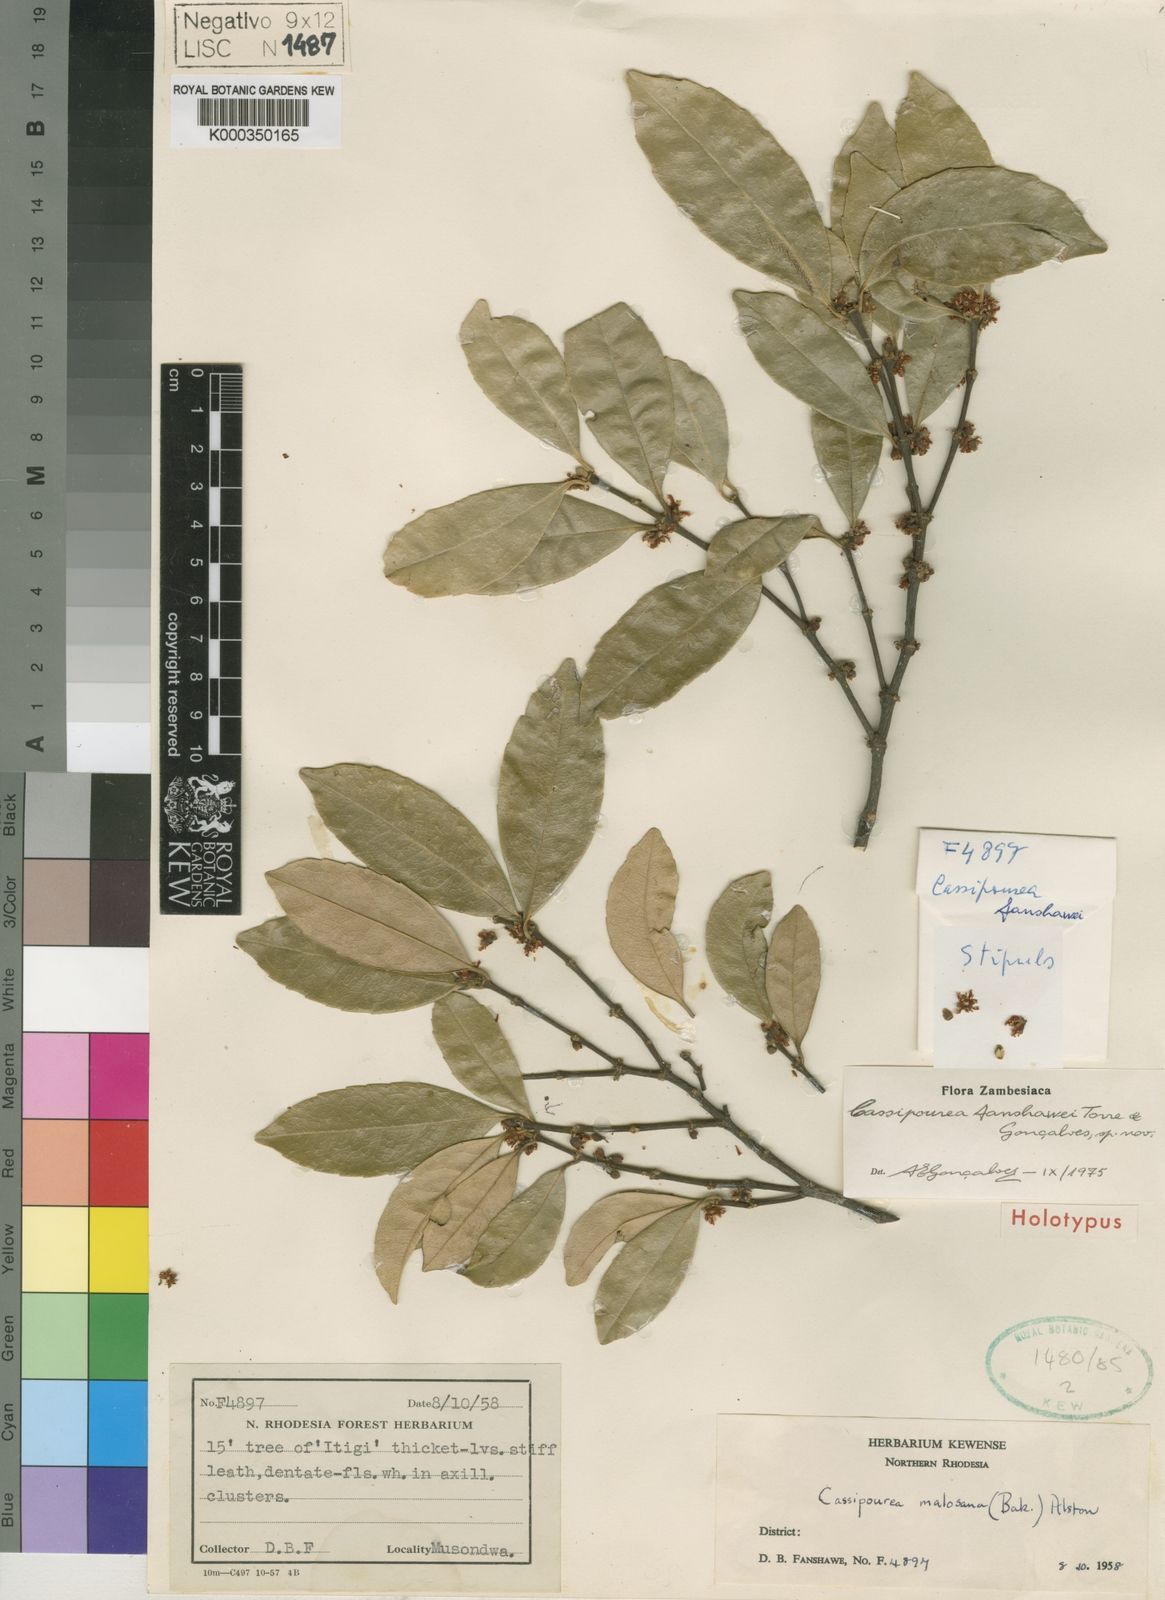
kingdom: Plantae
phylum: Tracheophyta
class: Magnoliopsida
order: Malpighiales
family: Rhizophoraceae
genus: Cassipourea
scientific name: Cassipourea fanshawei
